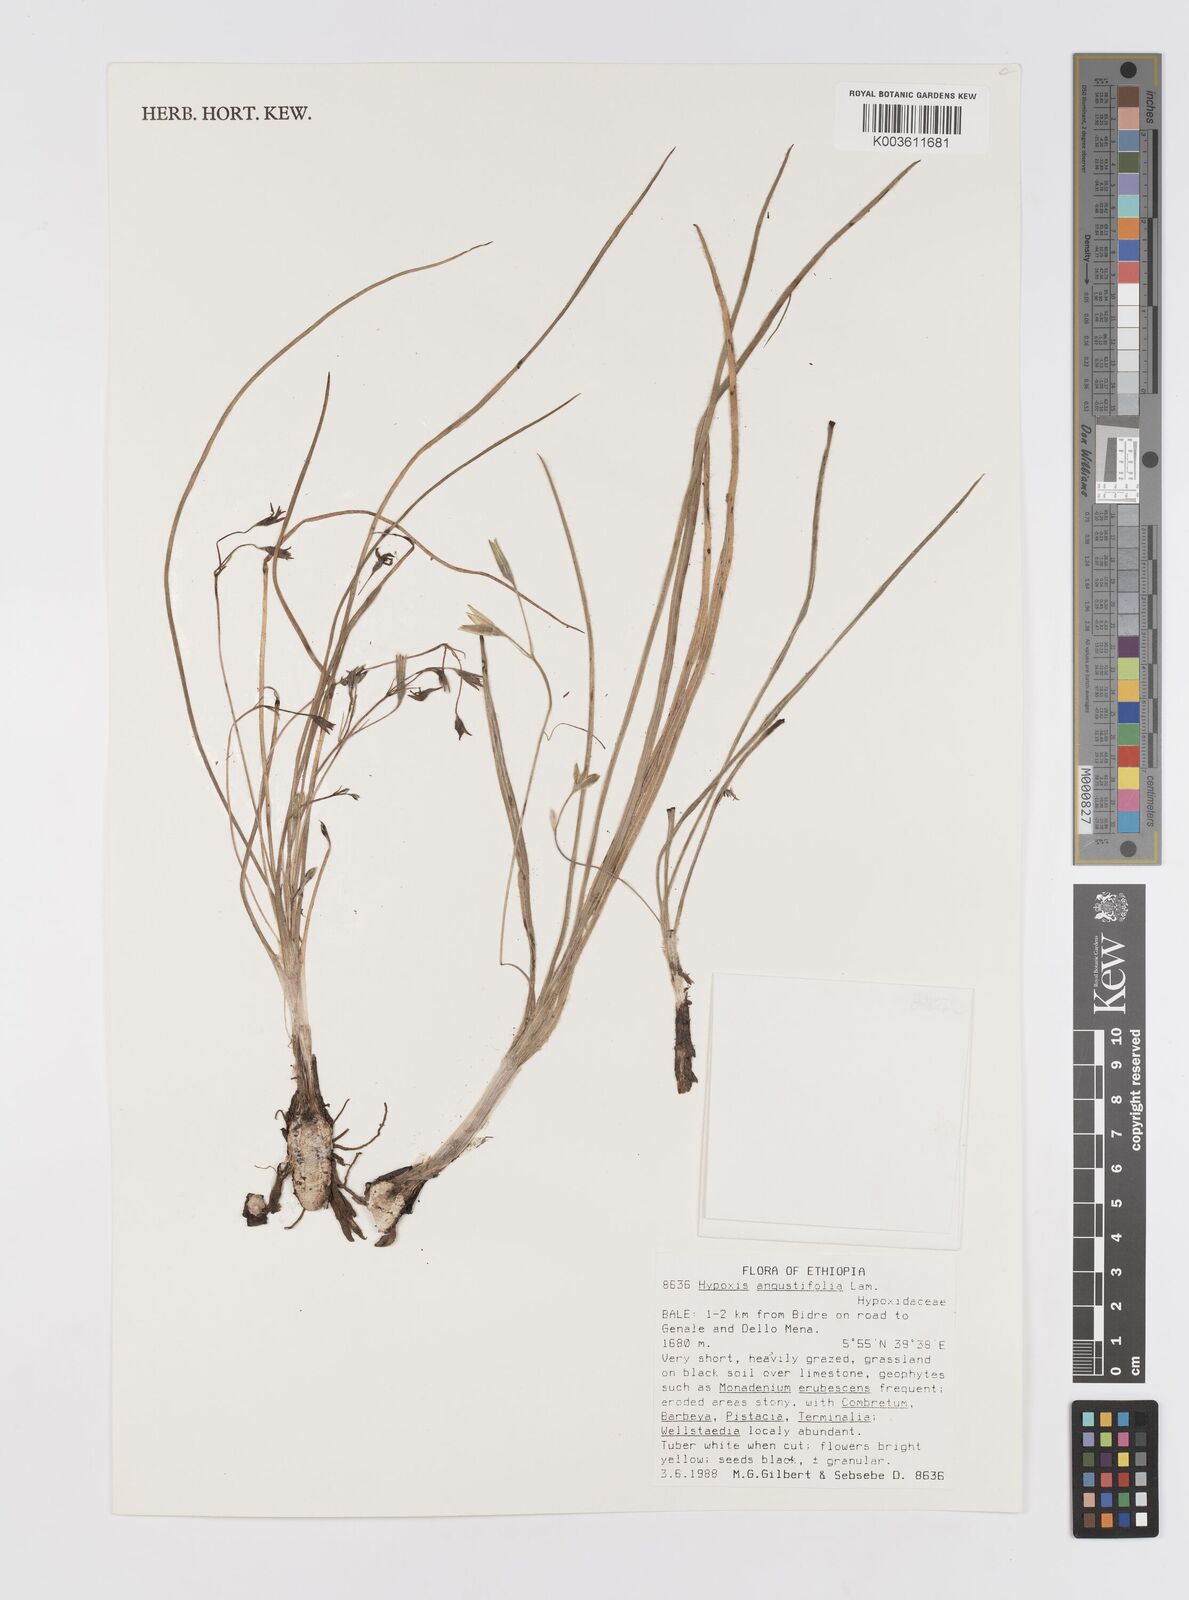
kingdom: Plantae
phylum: Tracheophyta
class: Liliopsida
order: Asparagales
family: Hypoxidaceae
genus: Hypoxis
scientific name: Hypoxis angustifolia
